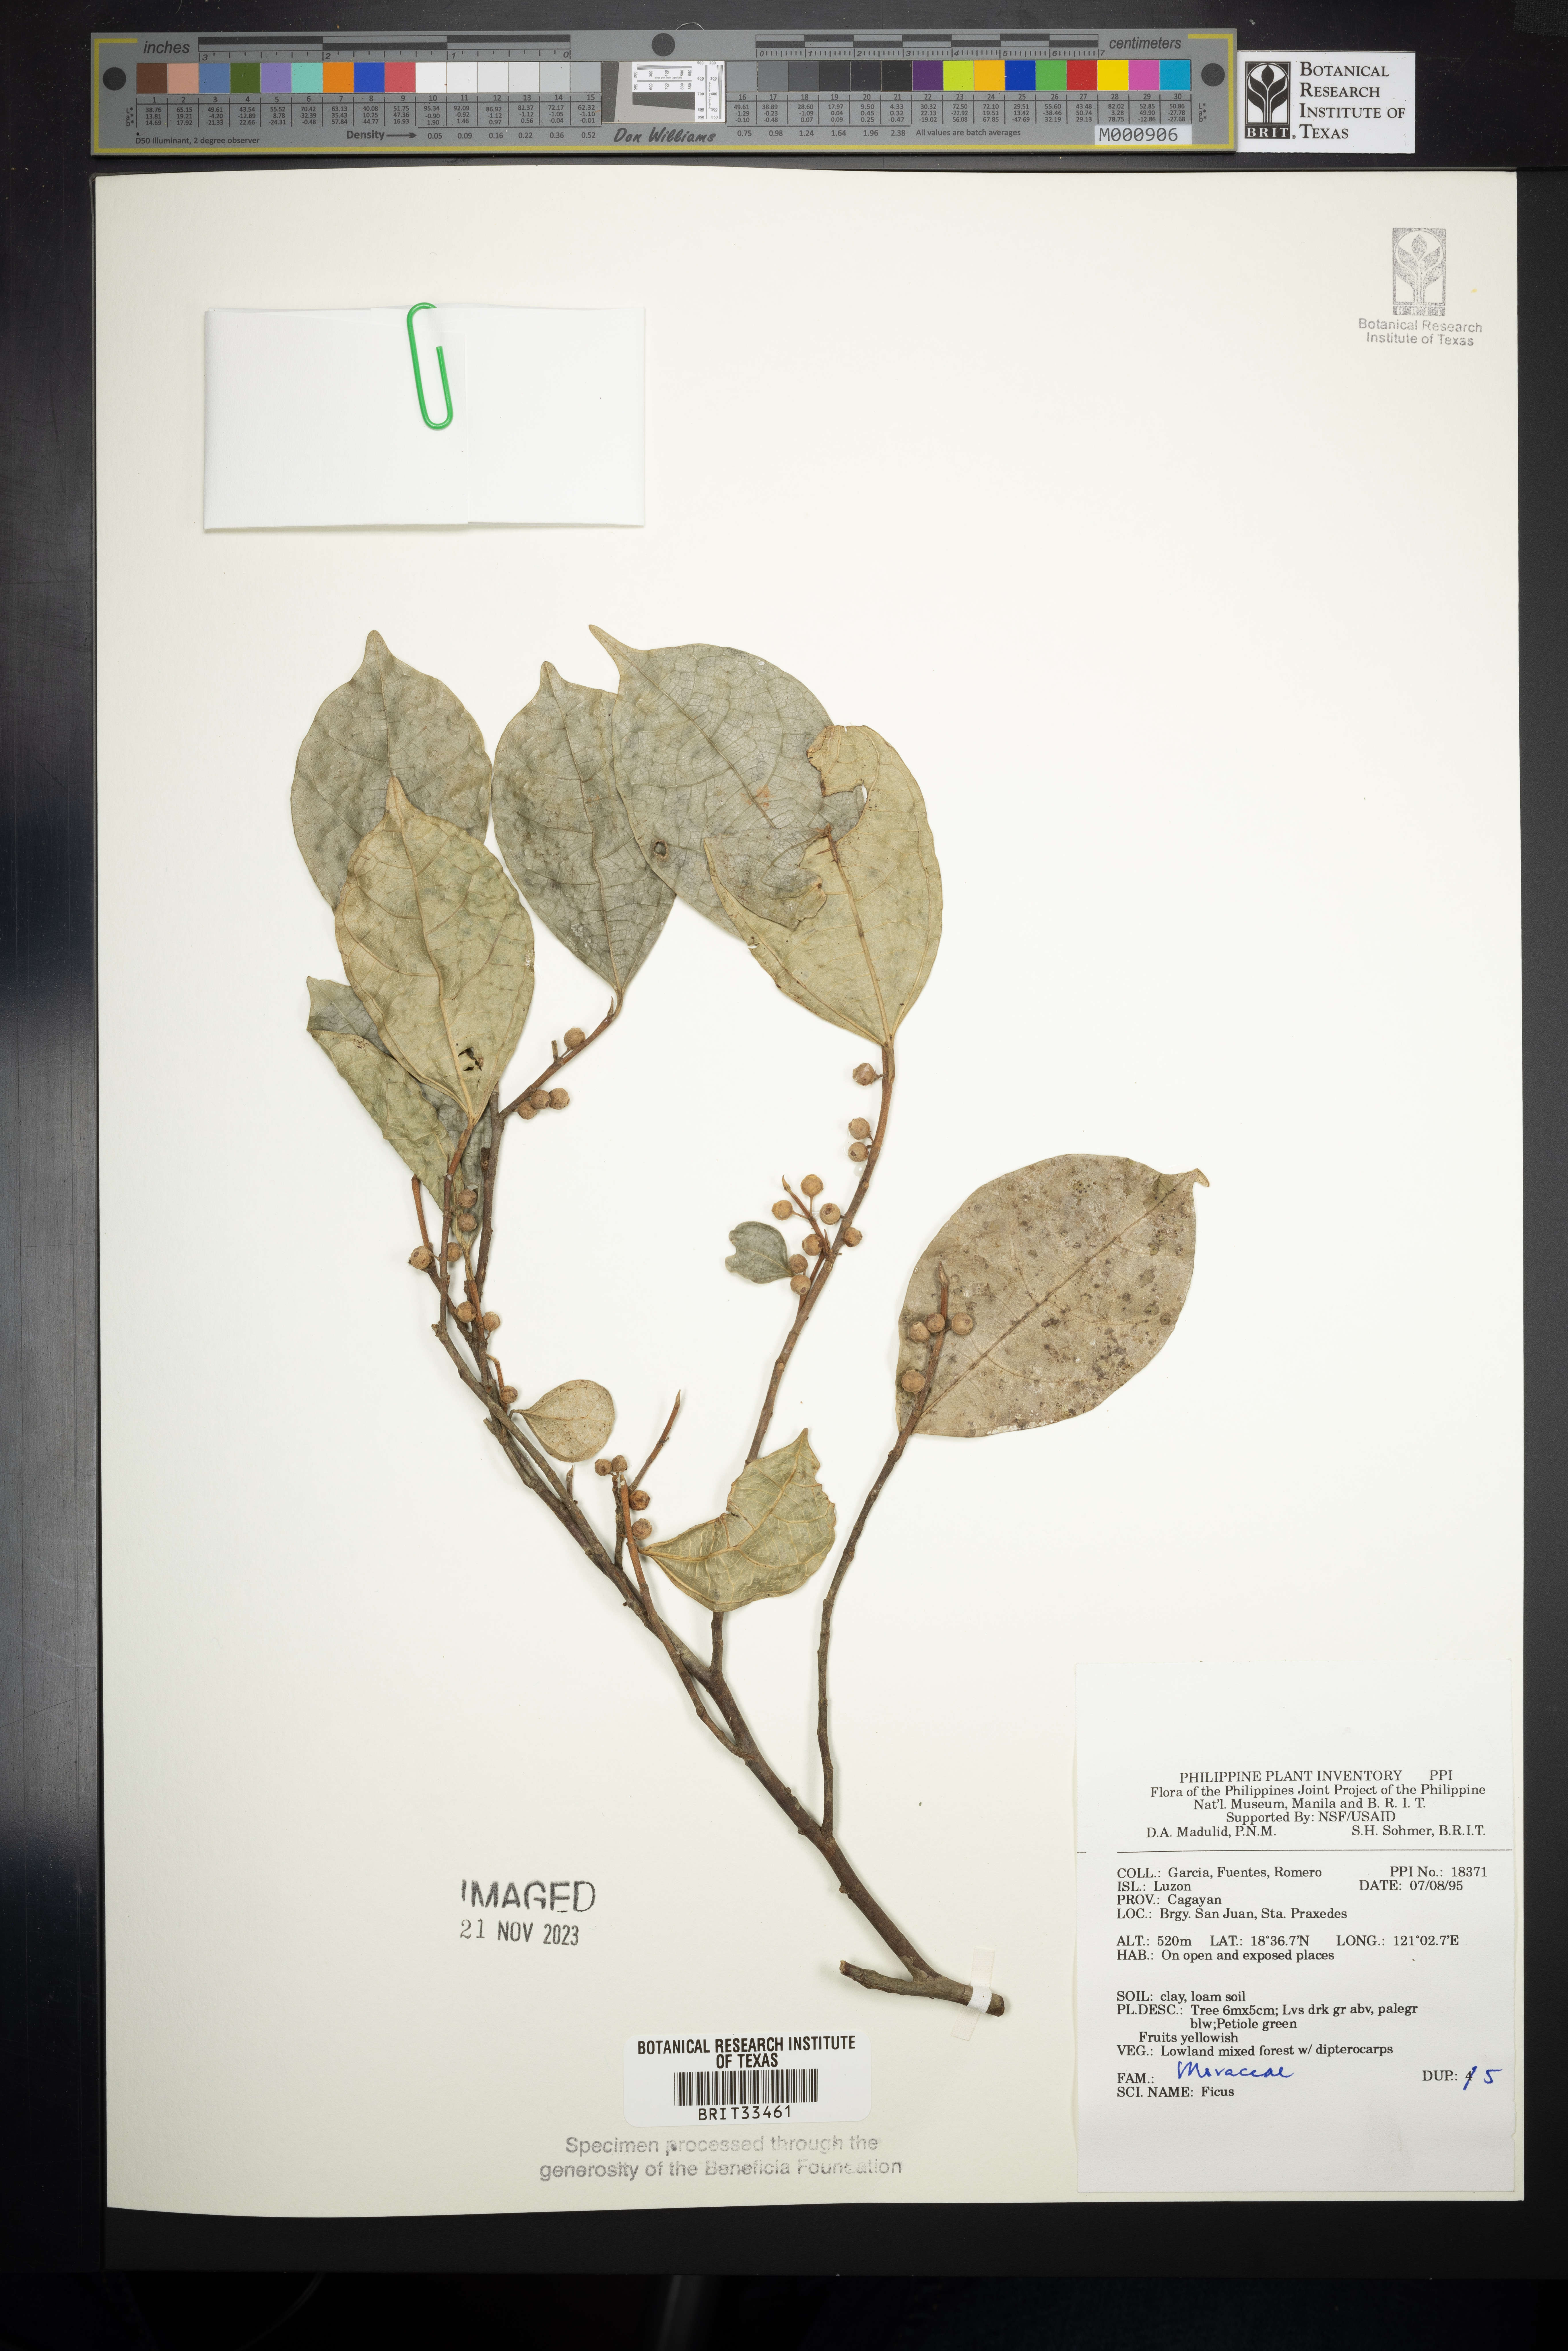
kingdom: Plantae
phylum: Tracheophyta
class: Magnoliopsida
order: Rosales
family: Moraceae
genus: Ficus
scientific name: Ficus
